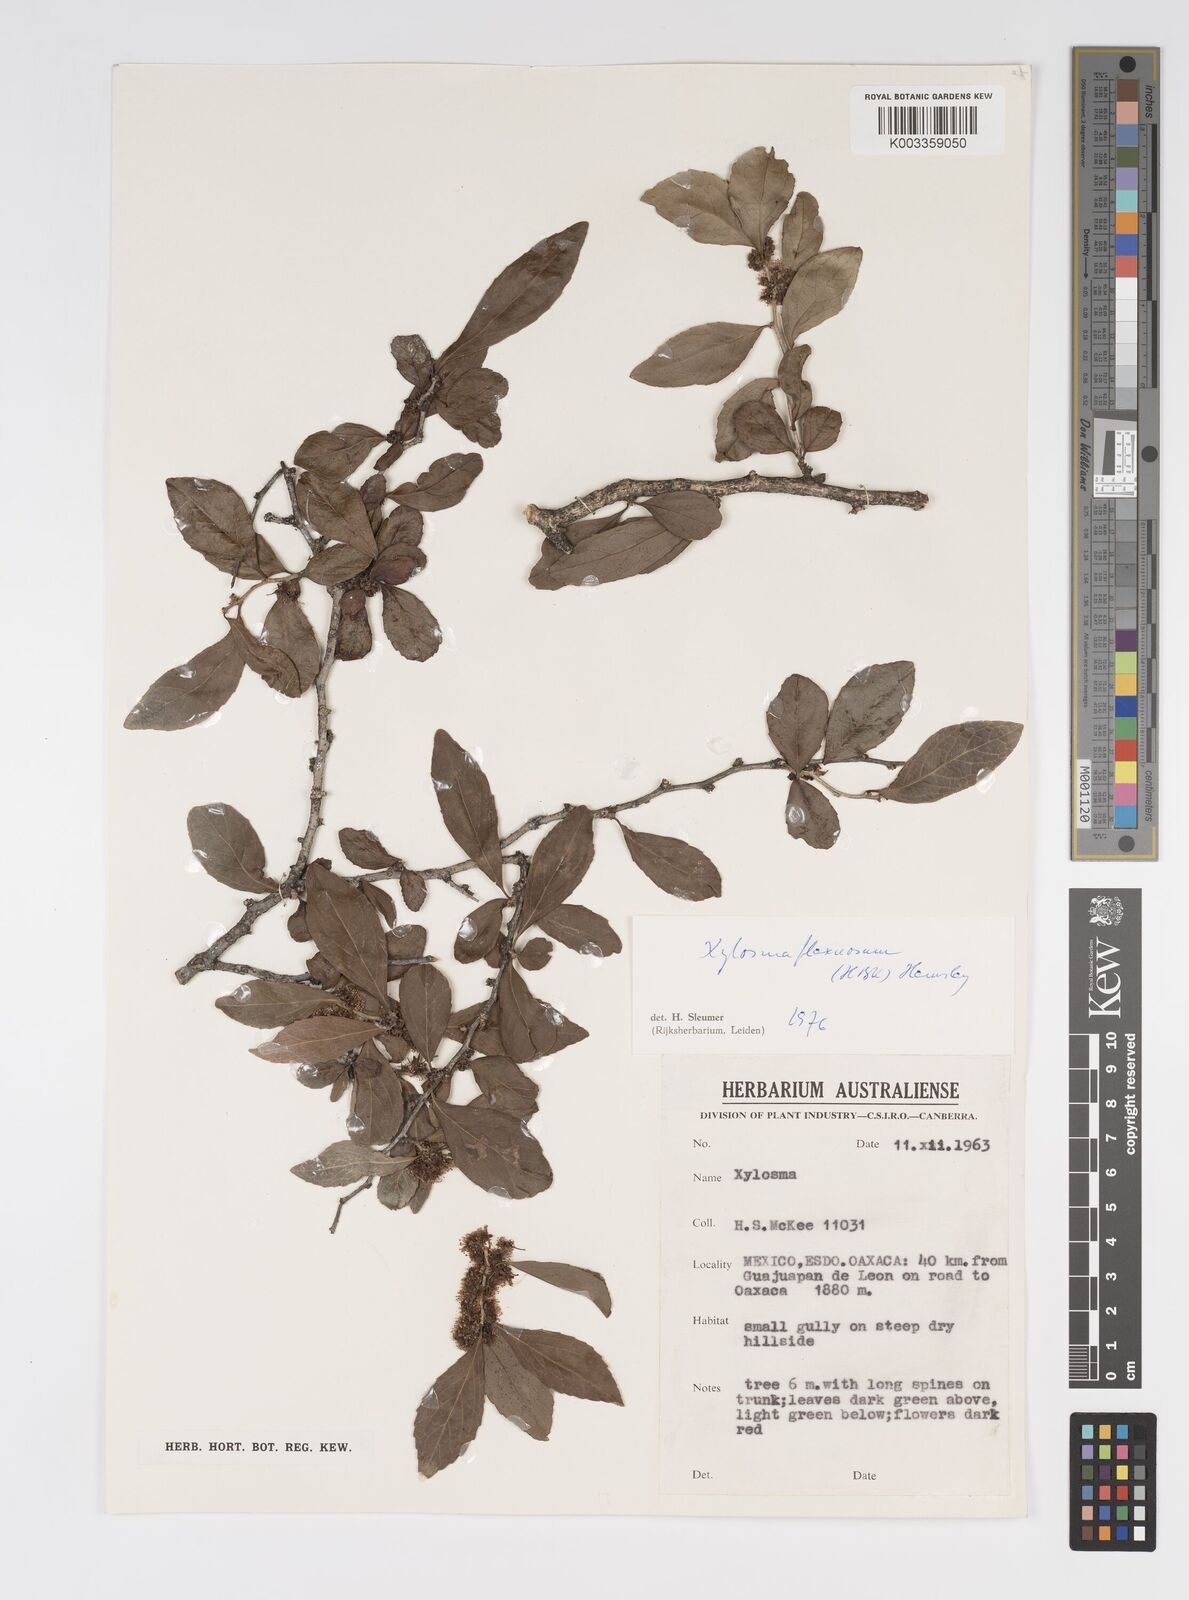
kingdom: Plantae
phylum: Tracheophyta
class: Magnoliopsida
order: Malpighiales
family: Salicaceae
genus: Xylosma
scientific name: Xylosma flexuosa
